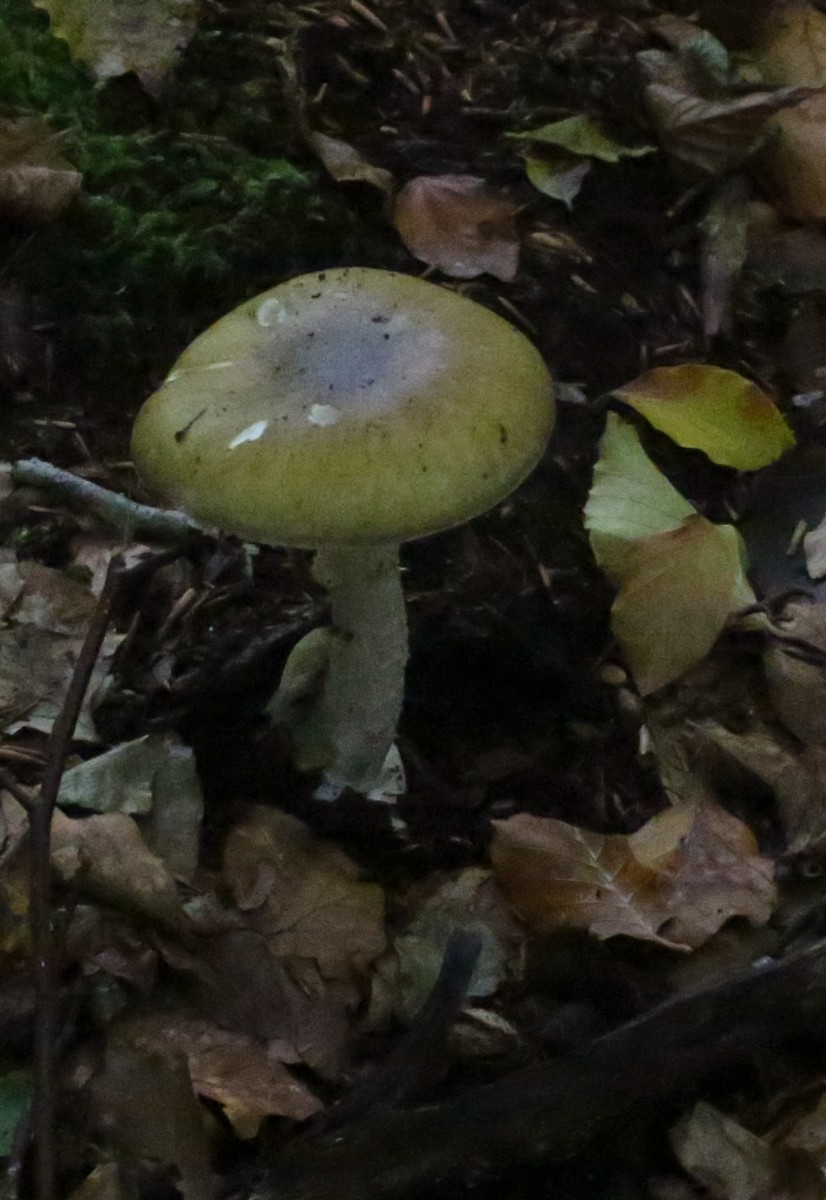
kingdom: Fungi
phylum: Basidiomycota
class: Agaricomycetes
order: Agaricales
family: Amanitaceae
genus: Amanita
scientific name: Amanita phalloides
